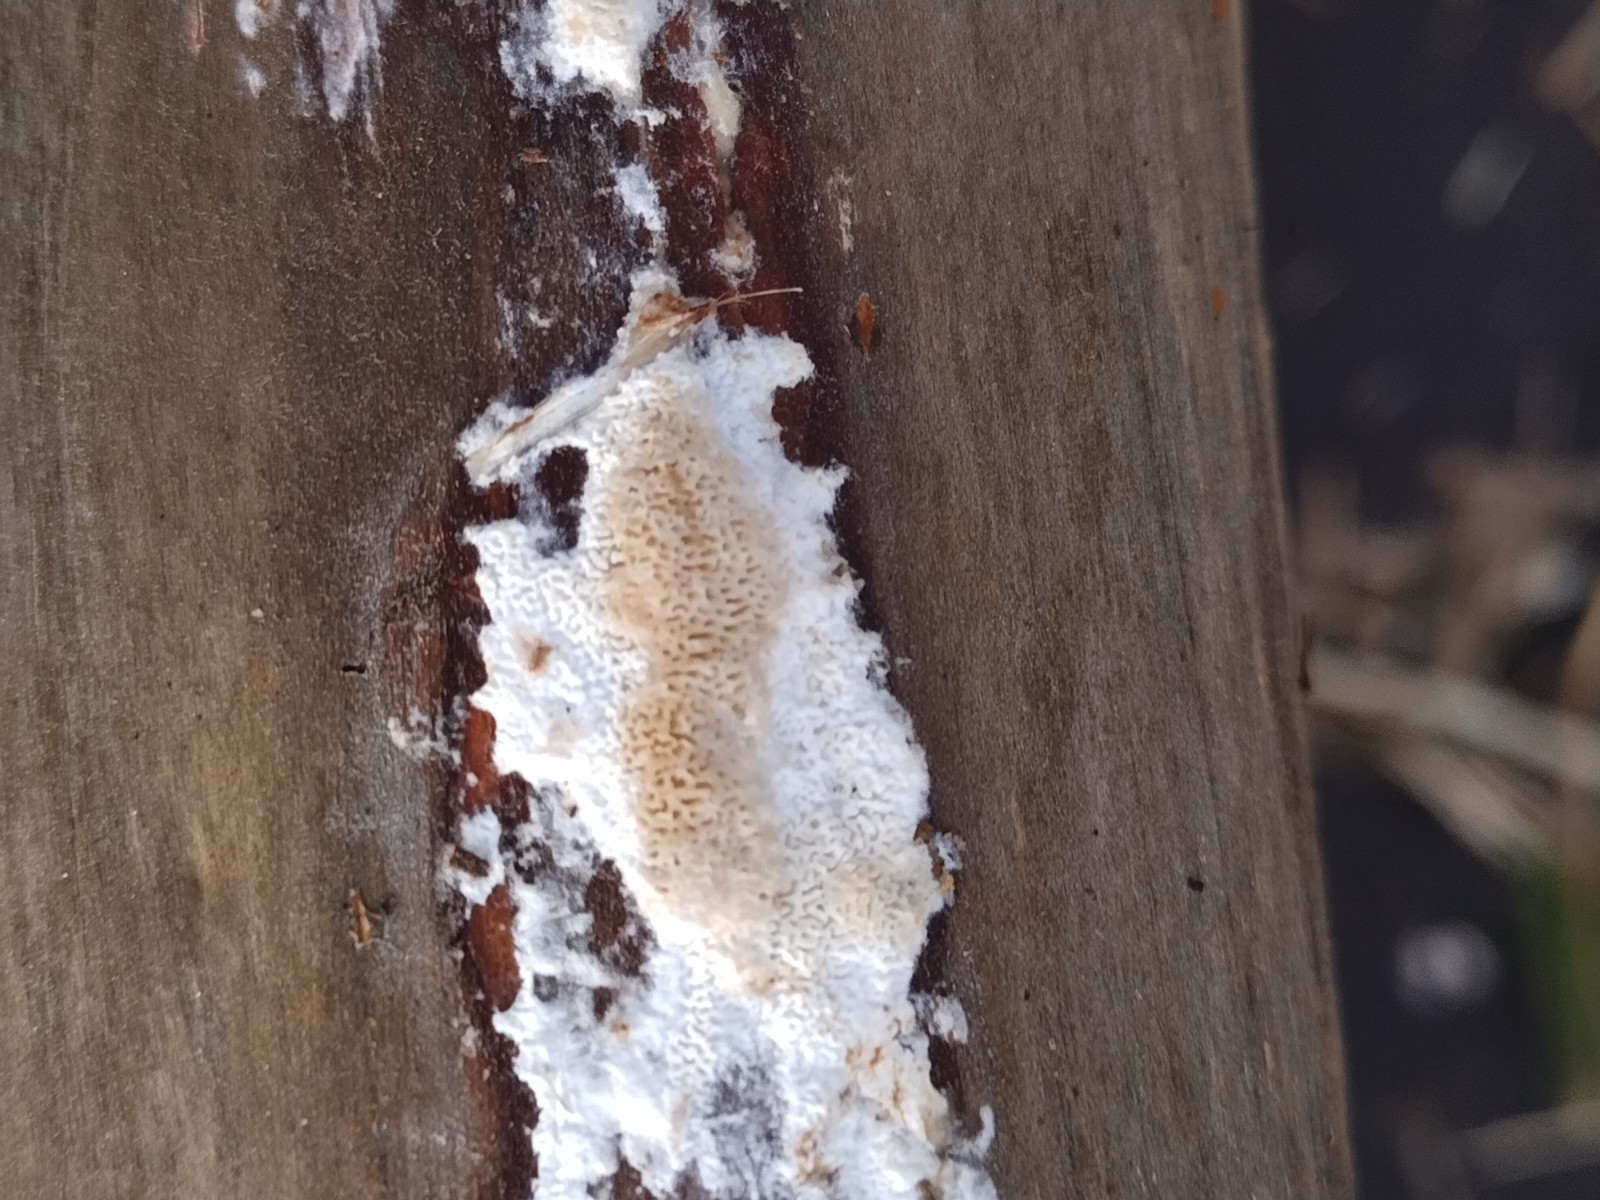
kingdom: Fungi
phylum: Basidiomycota
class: Agaricomycetes
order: Corticiales
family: Corticiaceae
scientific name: Corticiaceae
